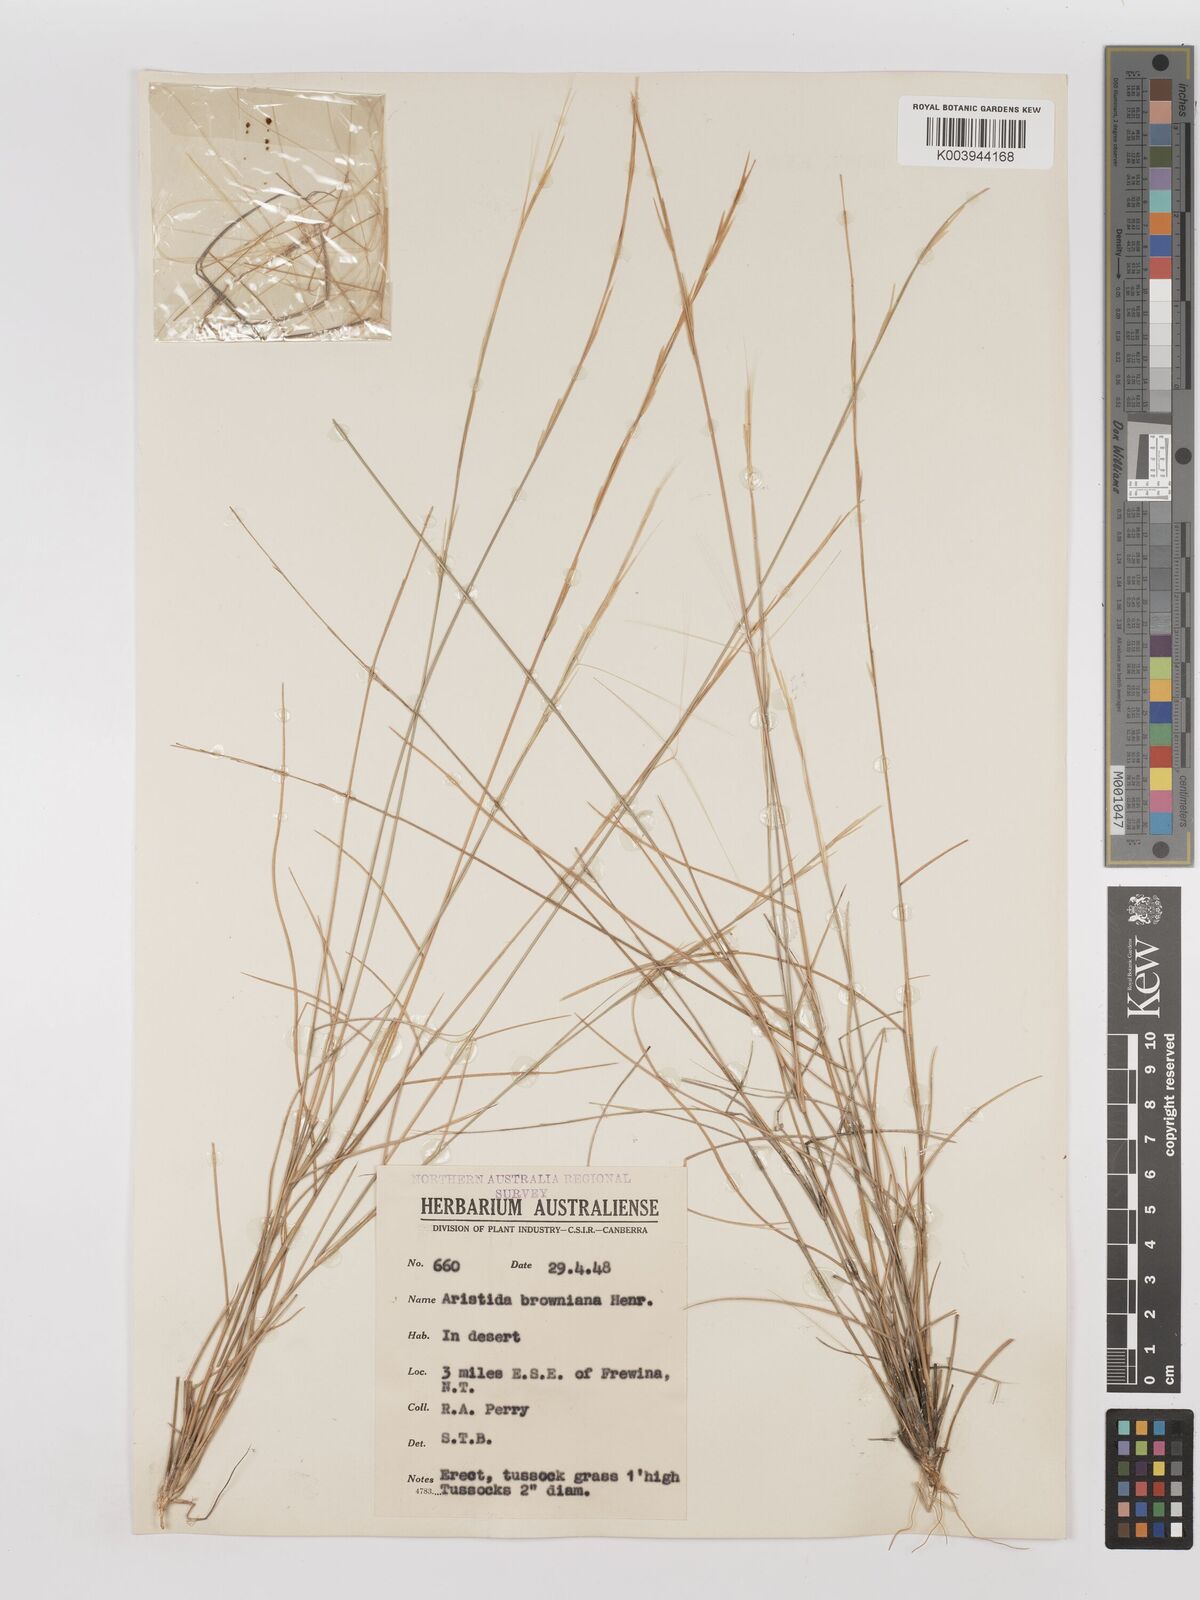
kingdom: Plantae
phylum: Tracheophyta
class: Liliopsida
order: Poales
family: Poaceae
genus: Aristida
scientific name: Aristida holathera
